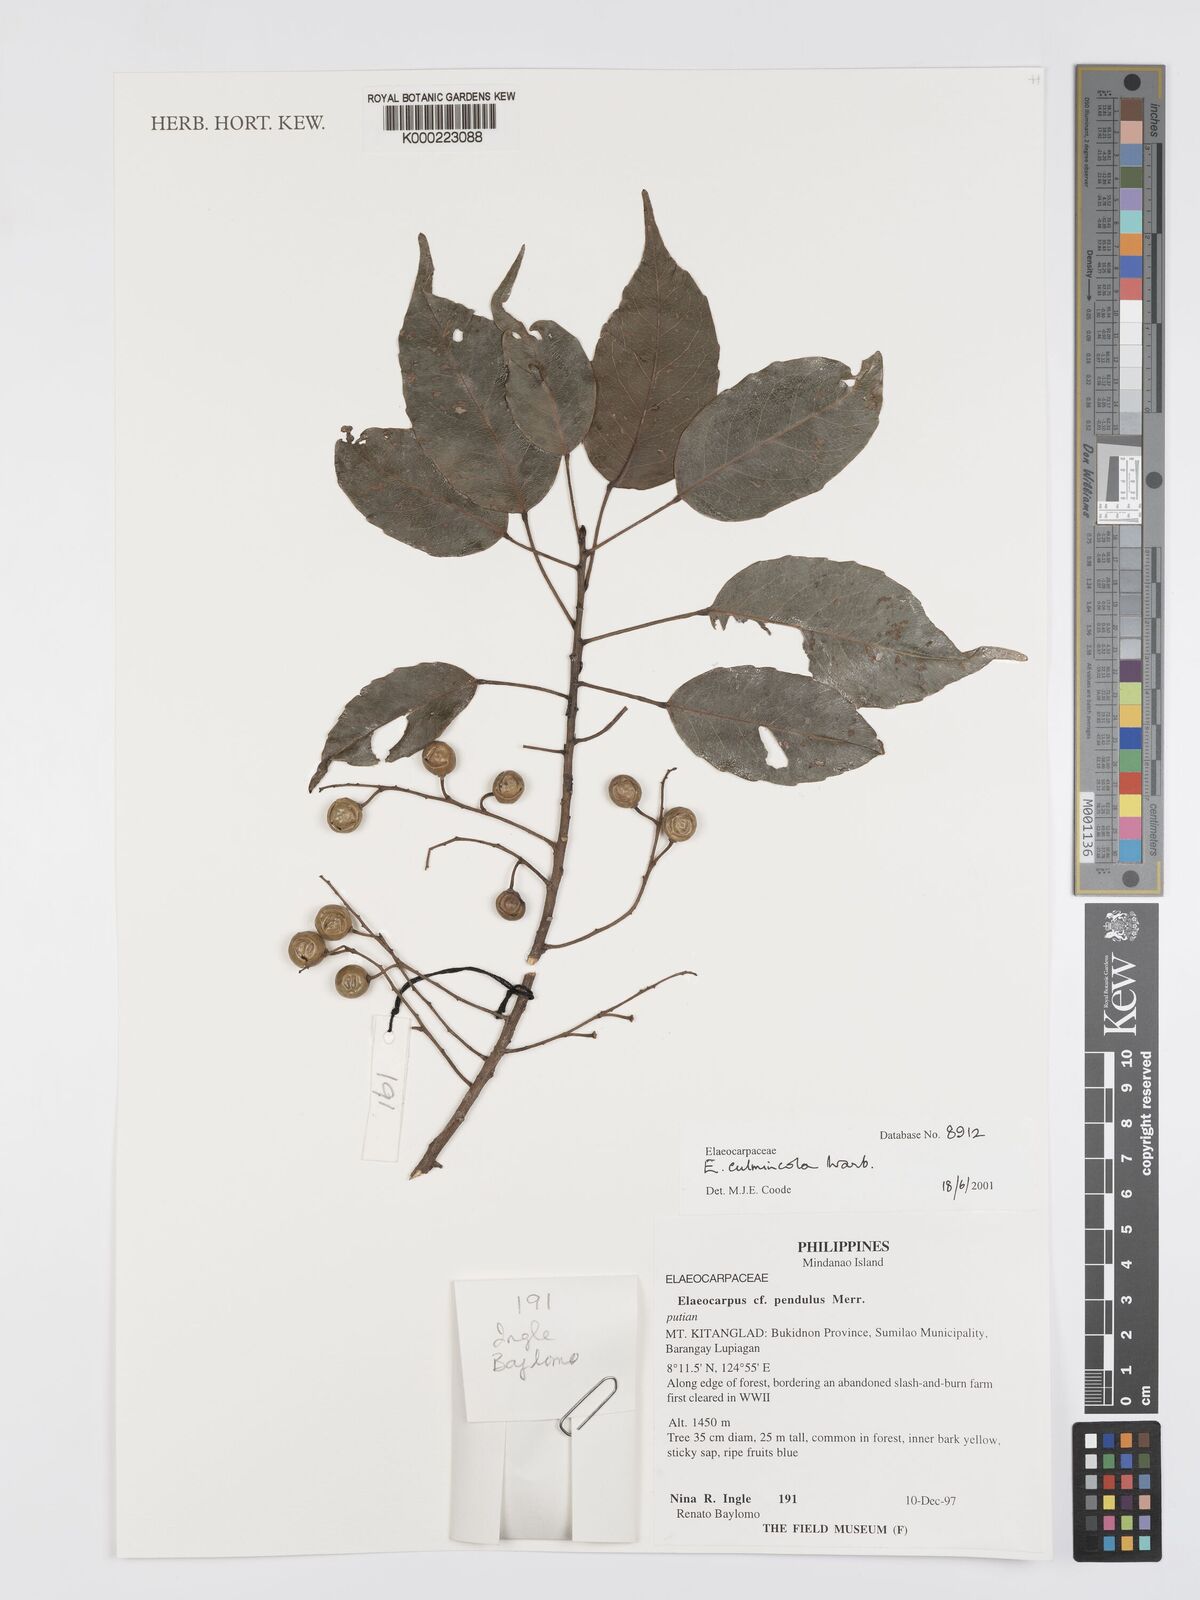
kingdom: Plantae
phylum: Tracheophyta
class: Magnoliopsida
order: Oxalidales
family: Elaeocarpaceae
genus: Elaeocarpus
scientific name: Elaeocarpus culminicola
